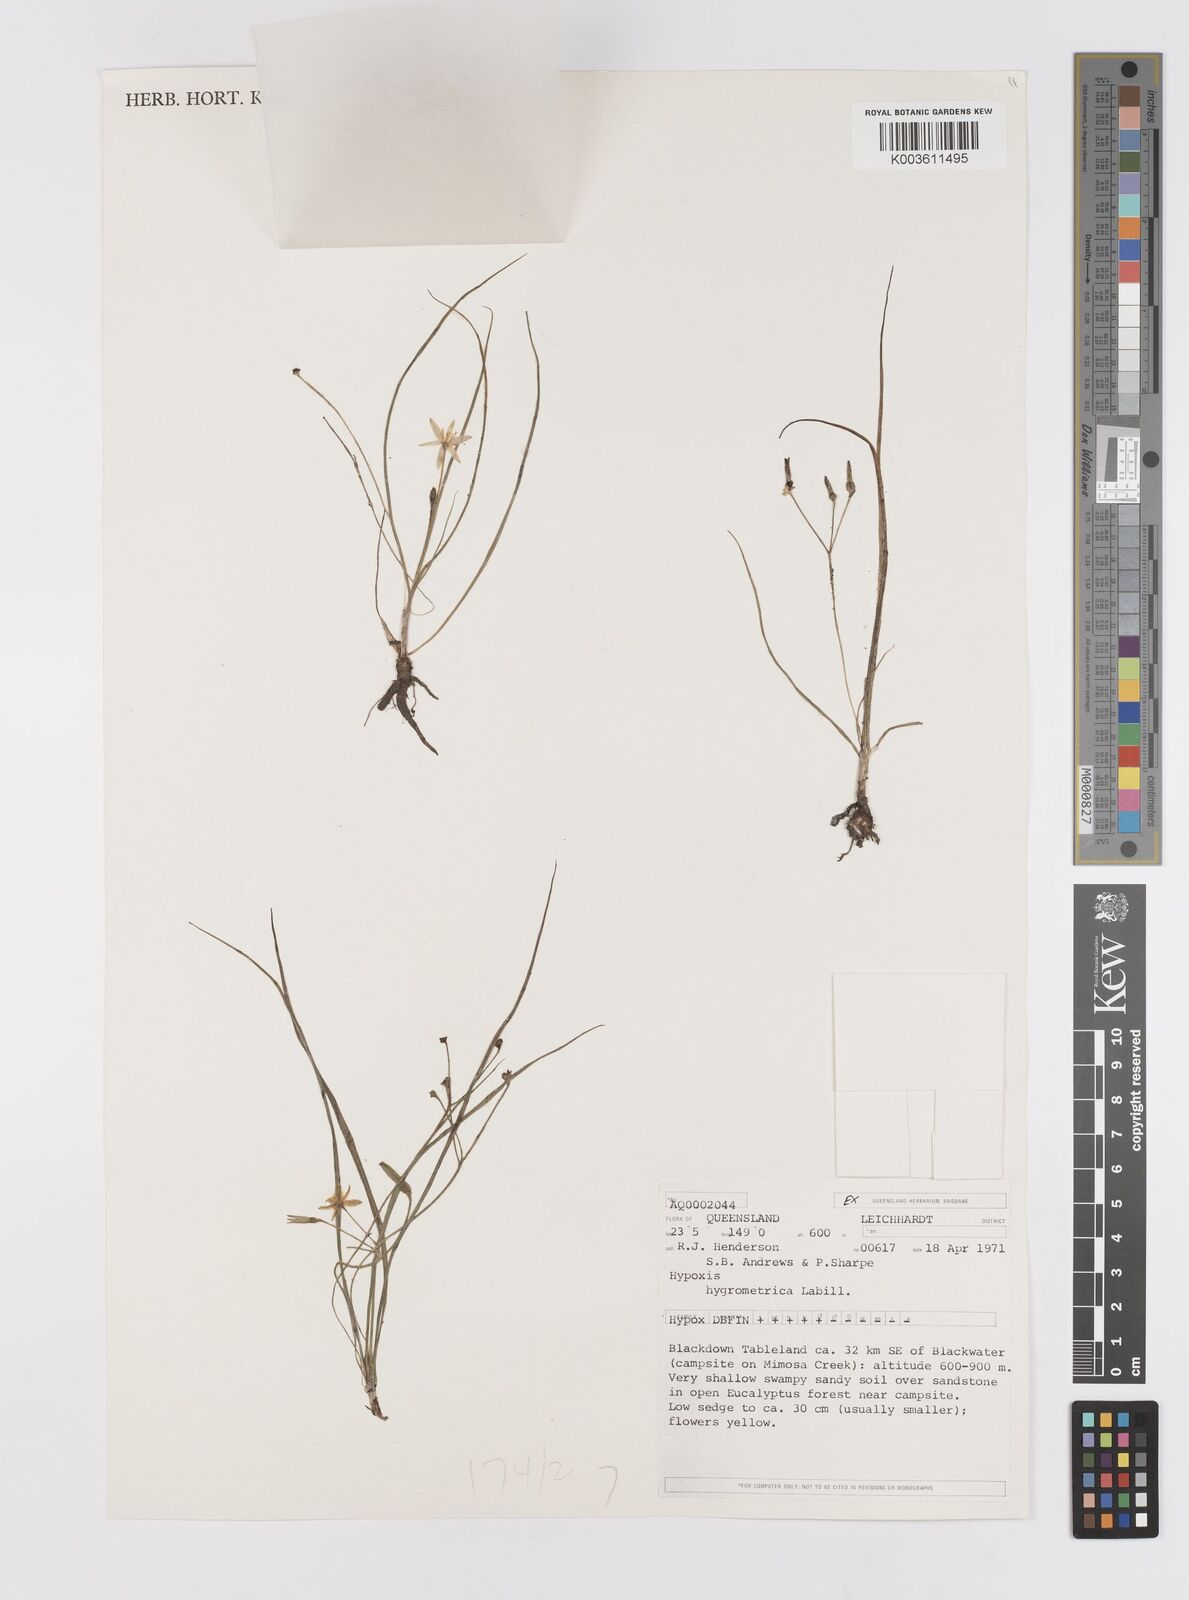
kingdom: Plantae
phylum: Tracheophyta
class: Liliopsida
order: Asparagales
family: Hypoxidaceae
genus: Hypoxis
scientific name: Hypoxis hygrometrica
